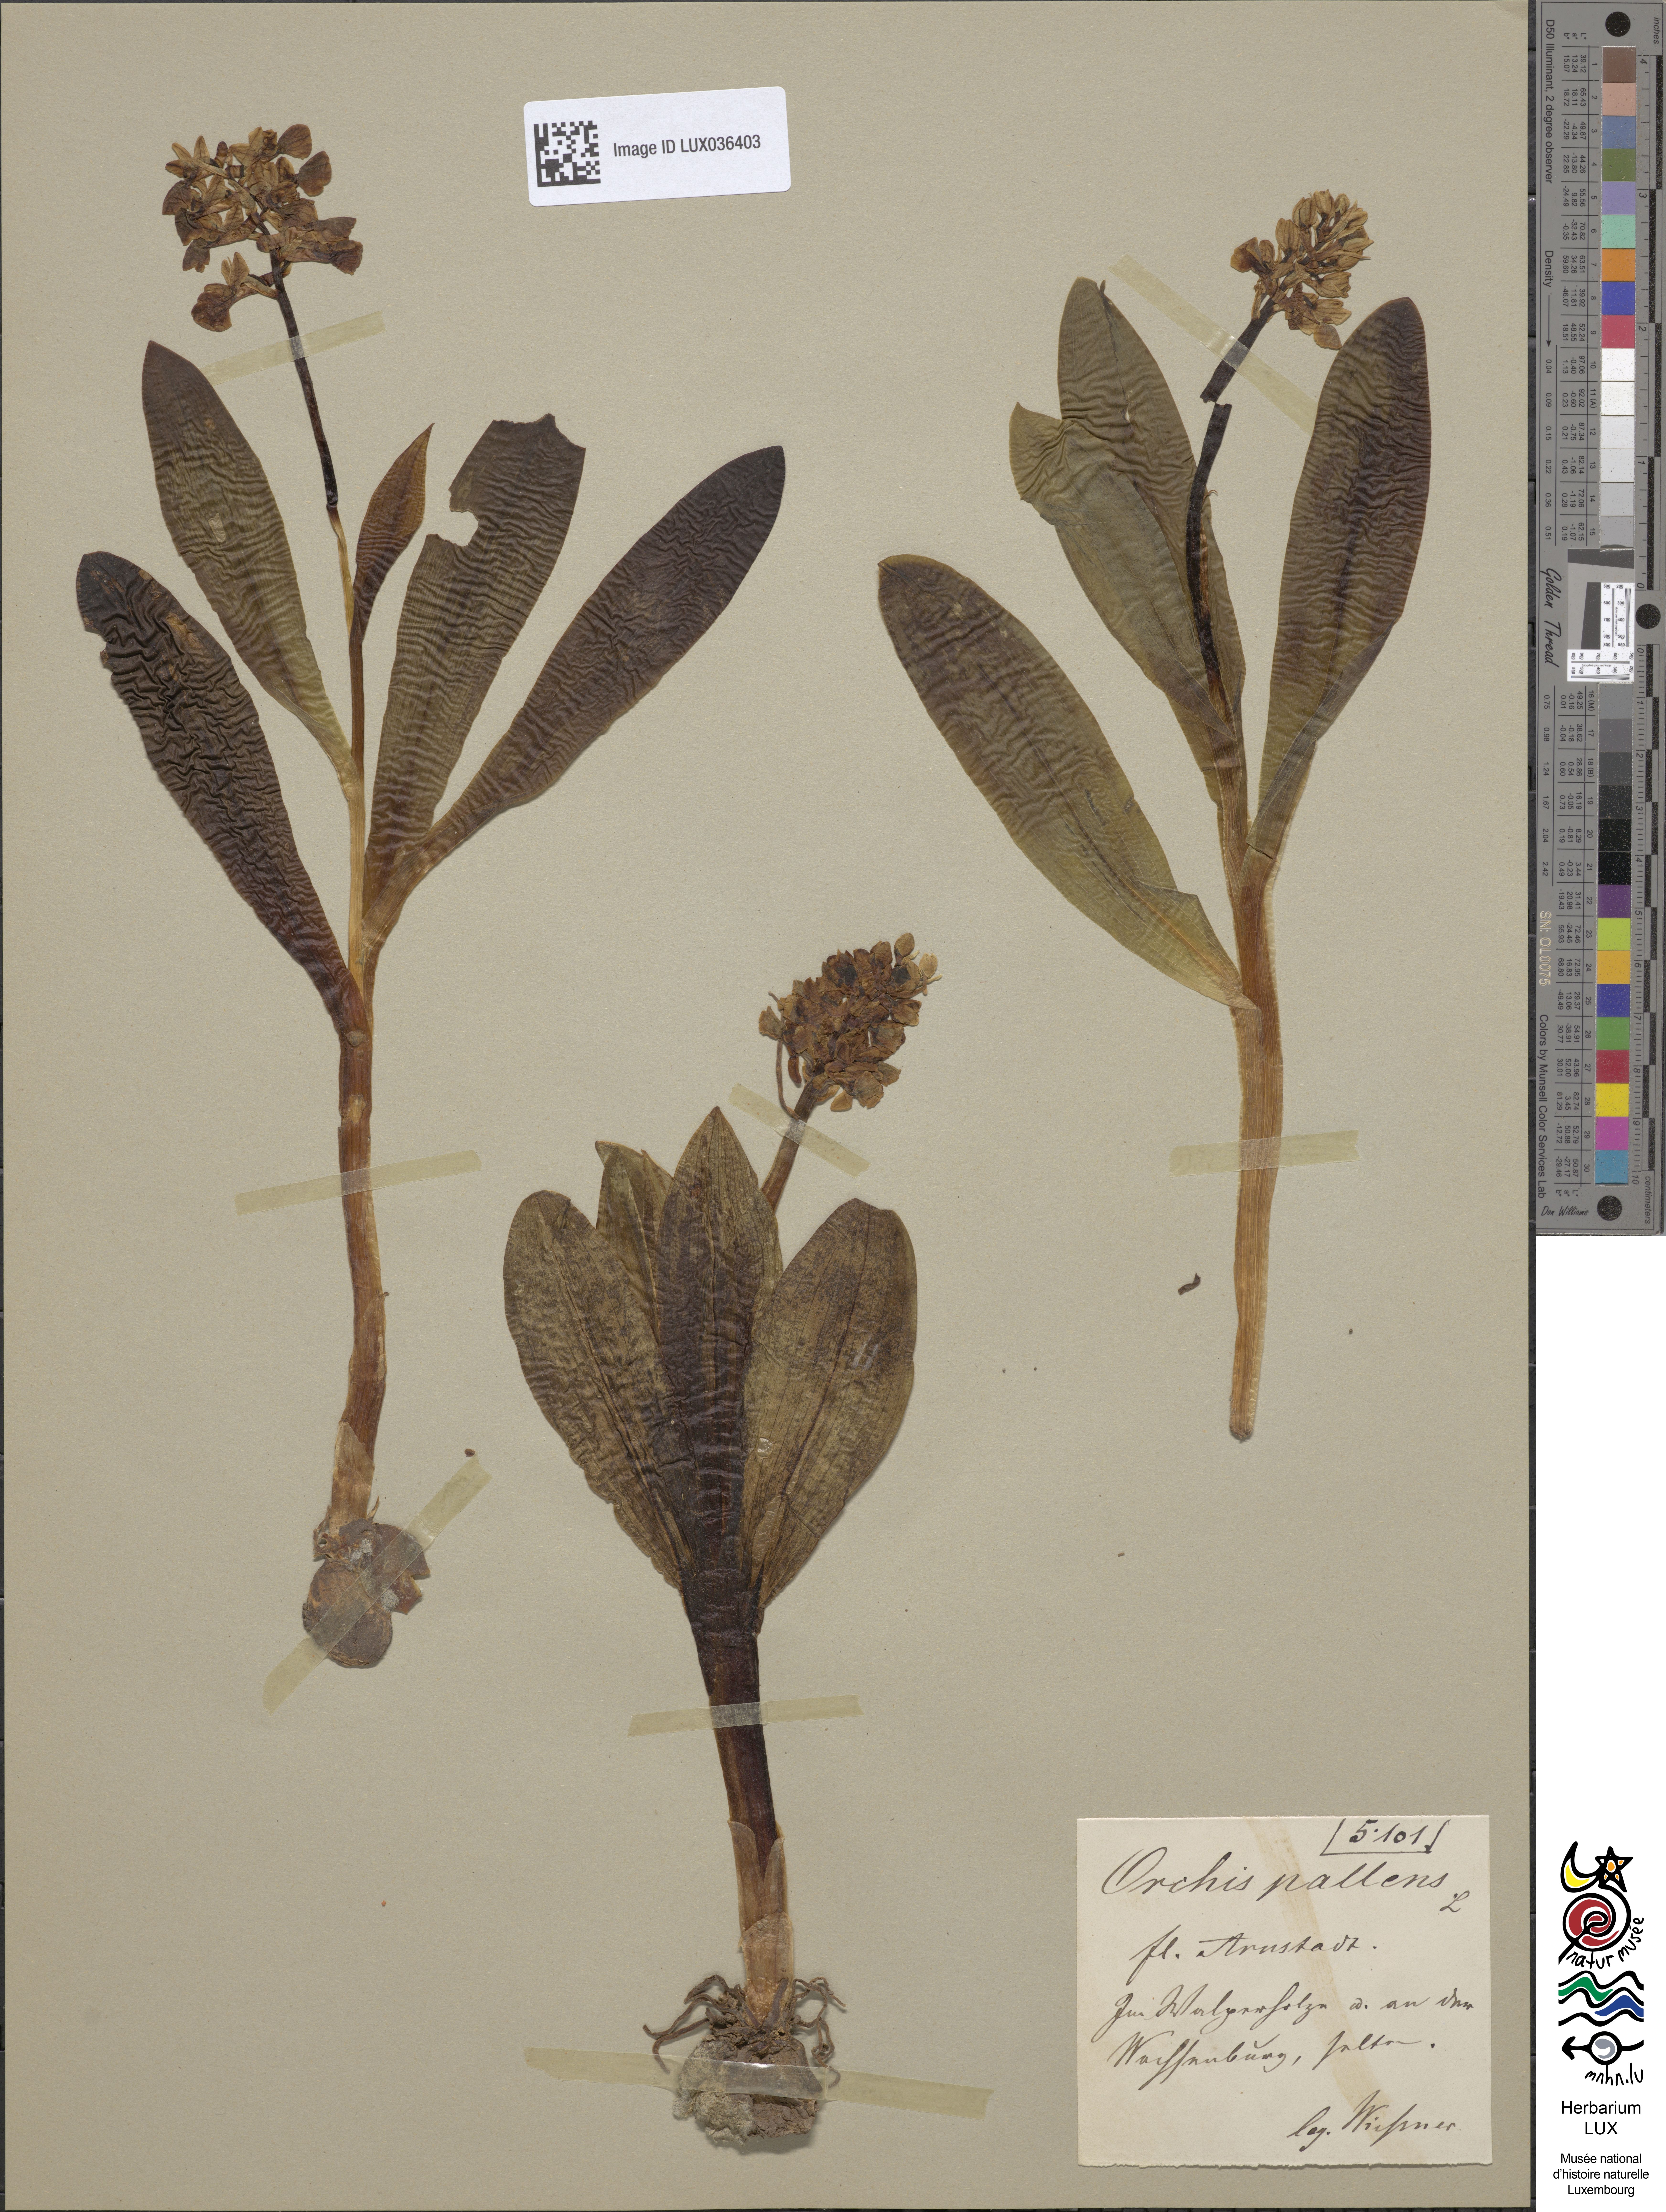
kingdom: Plantae
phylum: Tracheophyta
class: Liliopsida
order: Asparagales
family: Orchidaceae
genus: Orchis
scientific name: Orchis pallens
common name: Pale-flowered orchid
